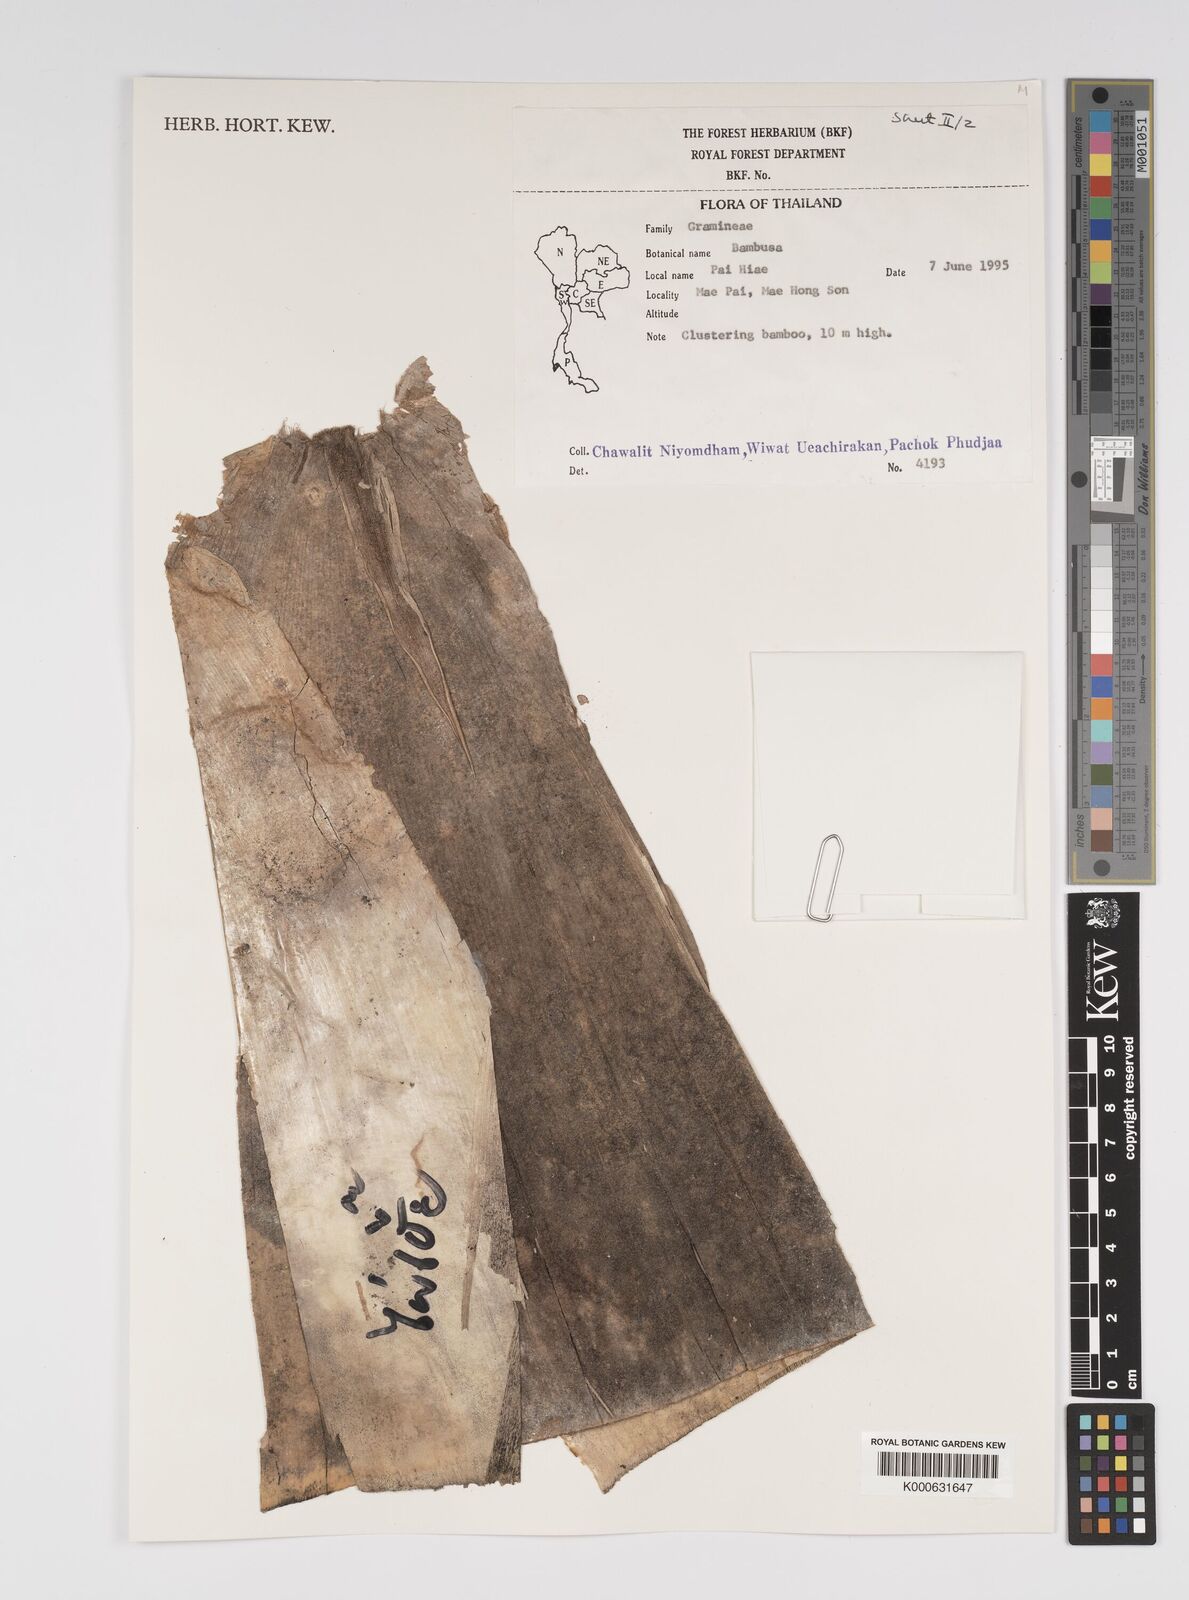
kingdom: Plantae
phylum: Tracheophyta
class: Liliopsida
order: Poales
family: Poaceae
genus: Bambusa
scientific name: Bambusa
